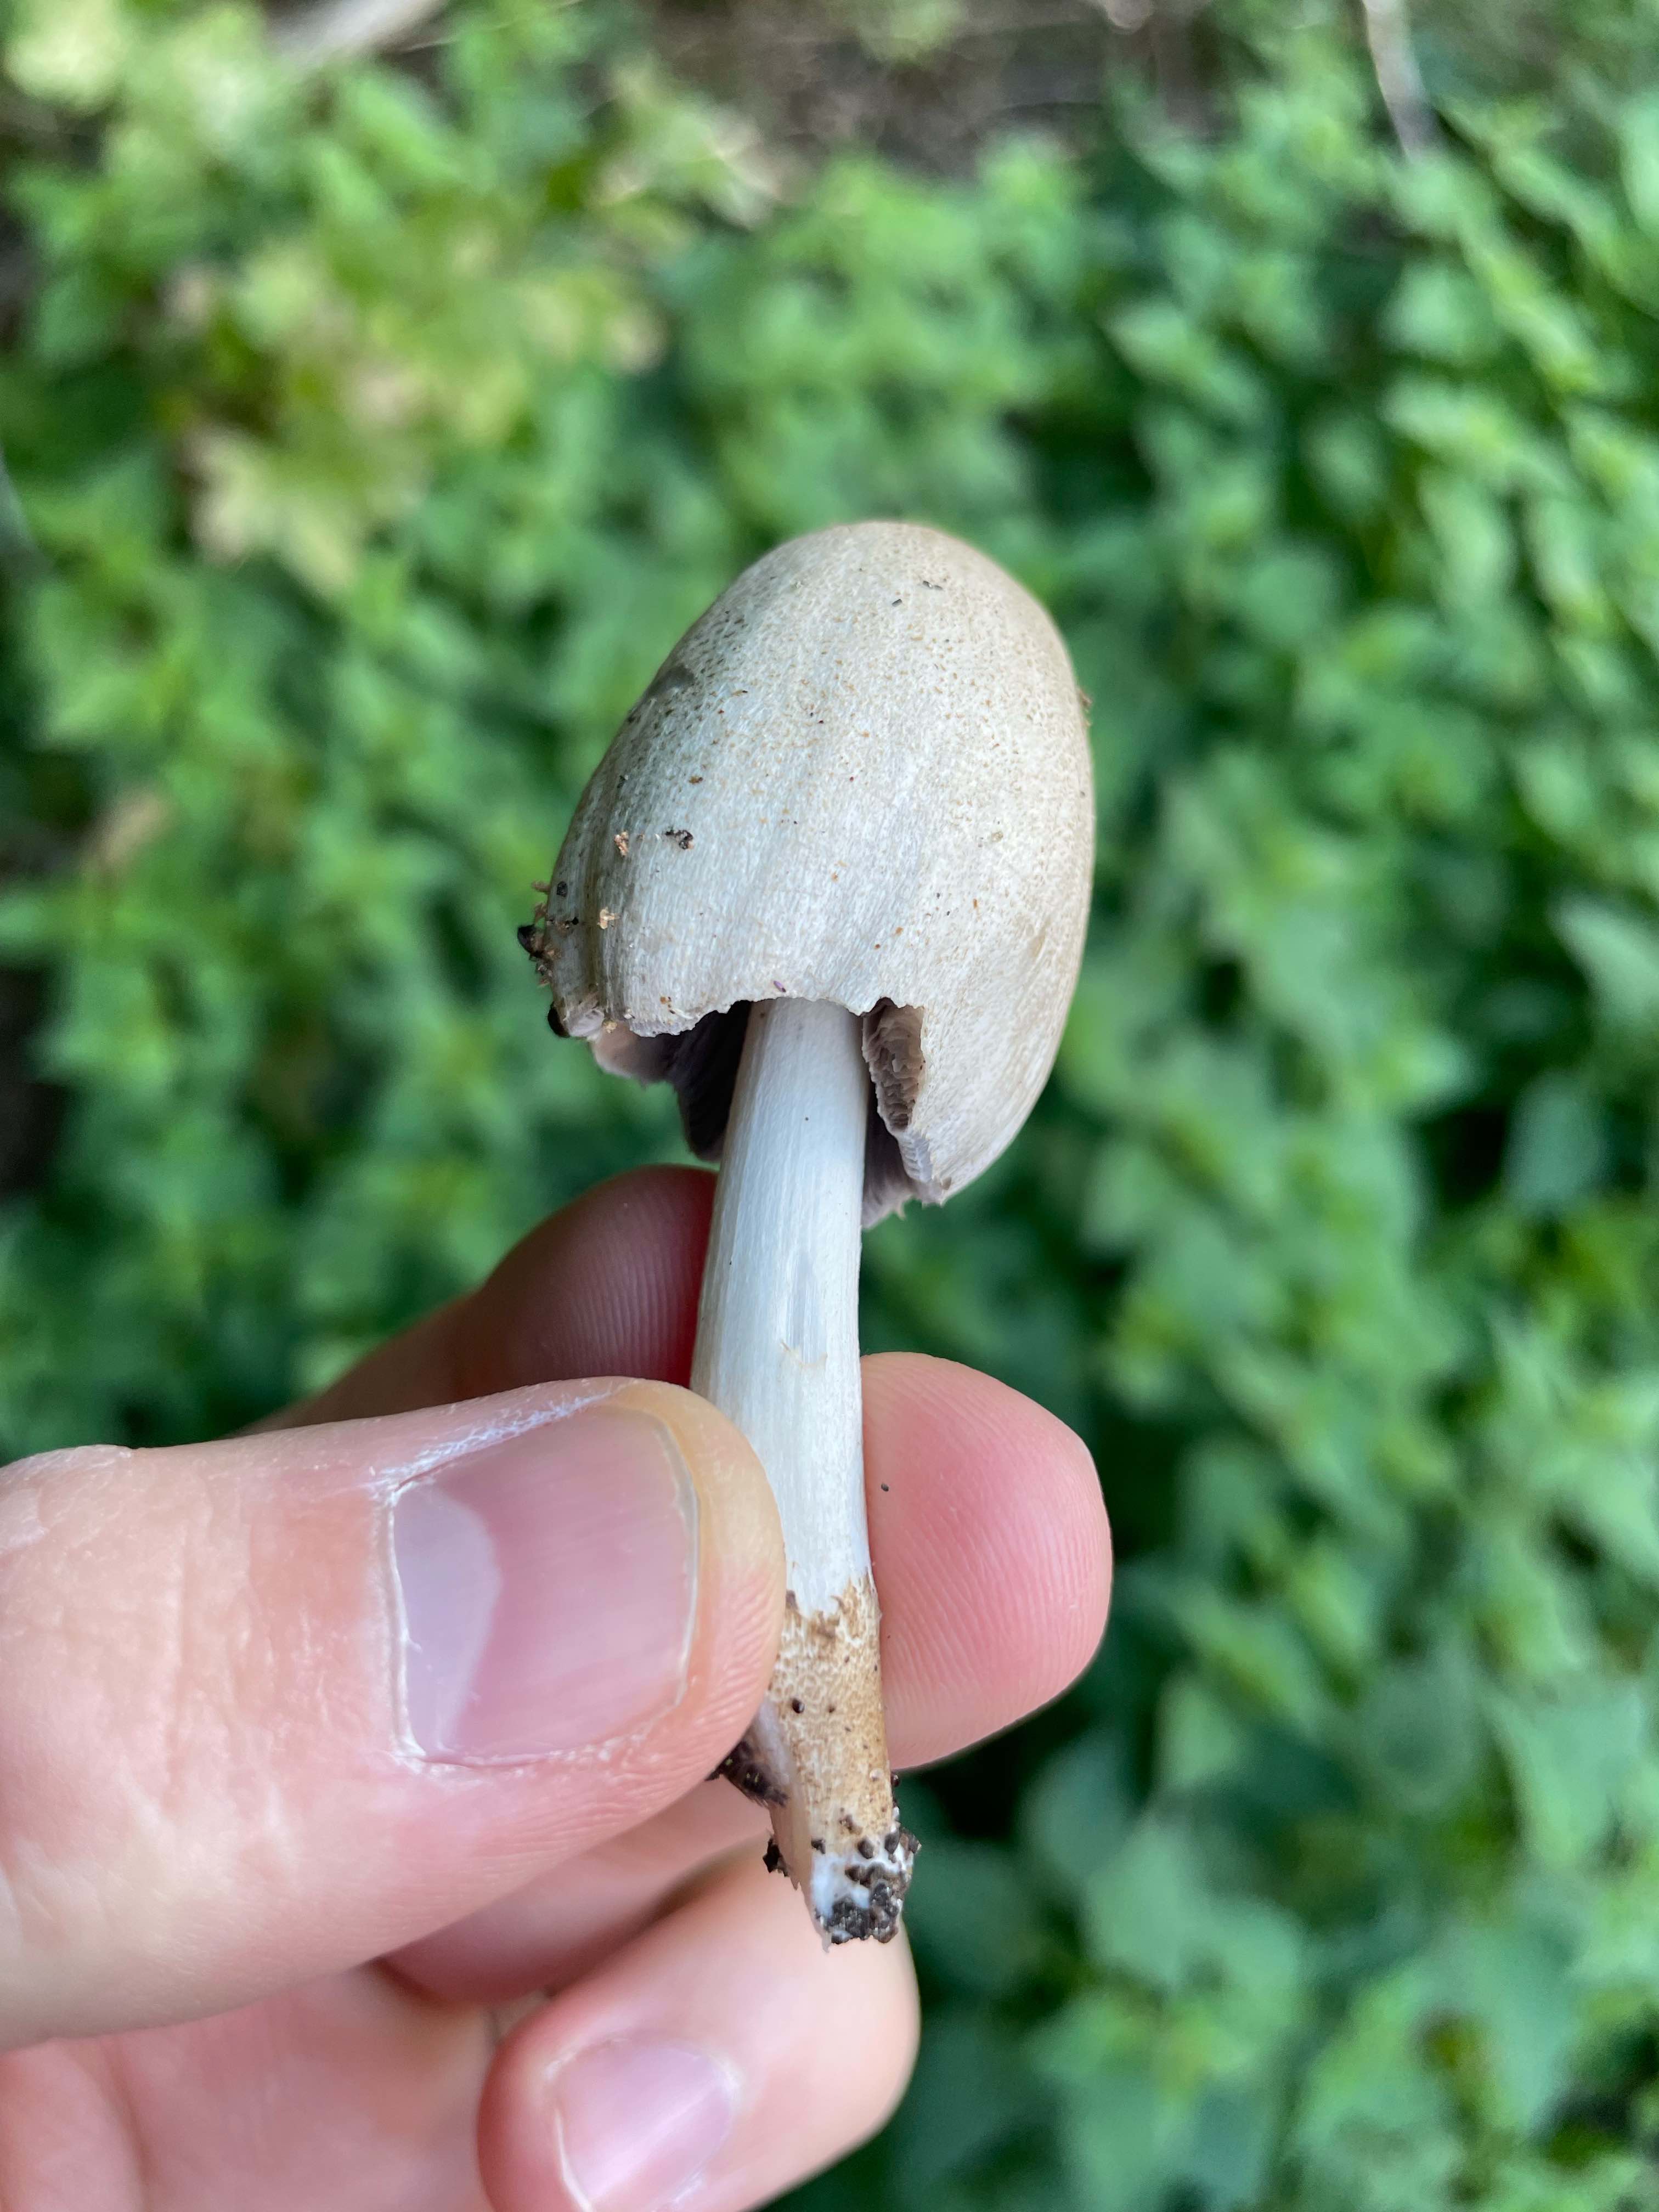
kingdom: Fungi
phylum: Basidiomycota
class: Agaricomycetes
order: Agaricales
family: Psathyrellaceae
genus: Coprinopsis
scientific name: Coprinopsis romagnesiana
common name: brunskællet blækhat
